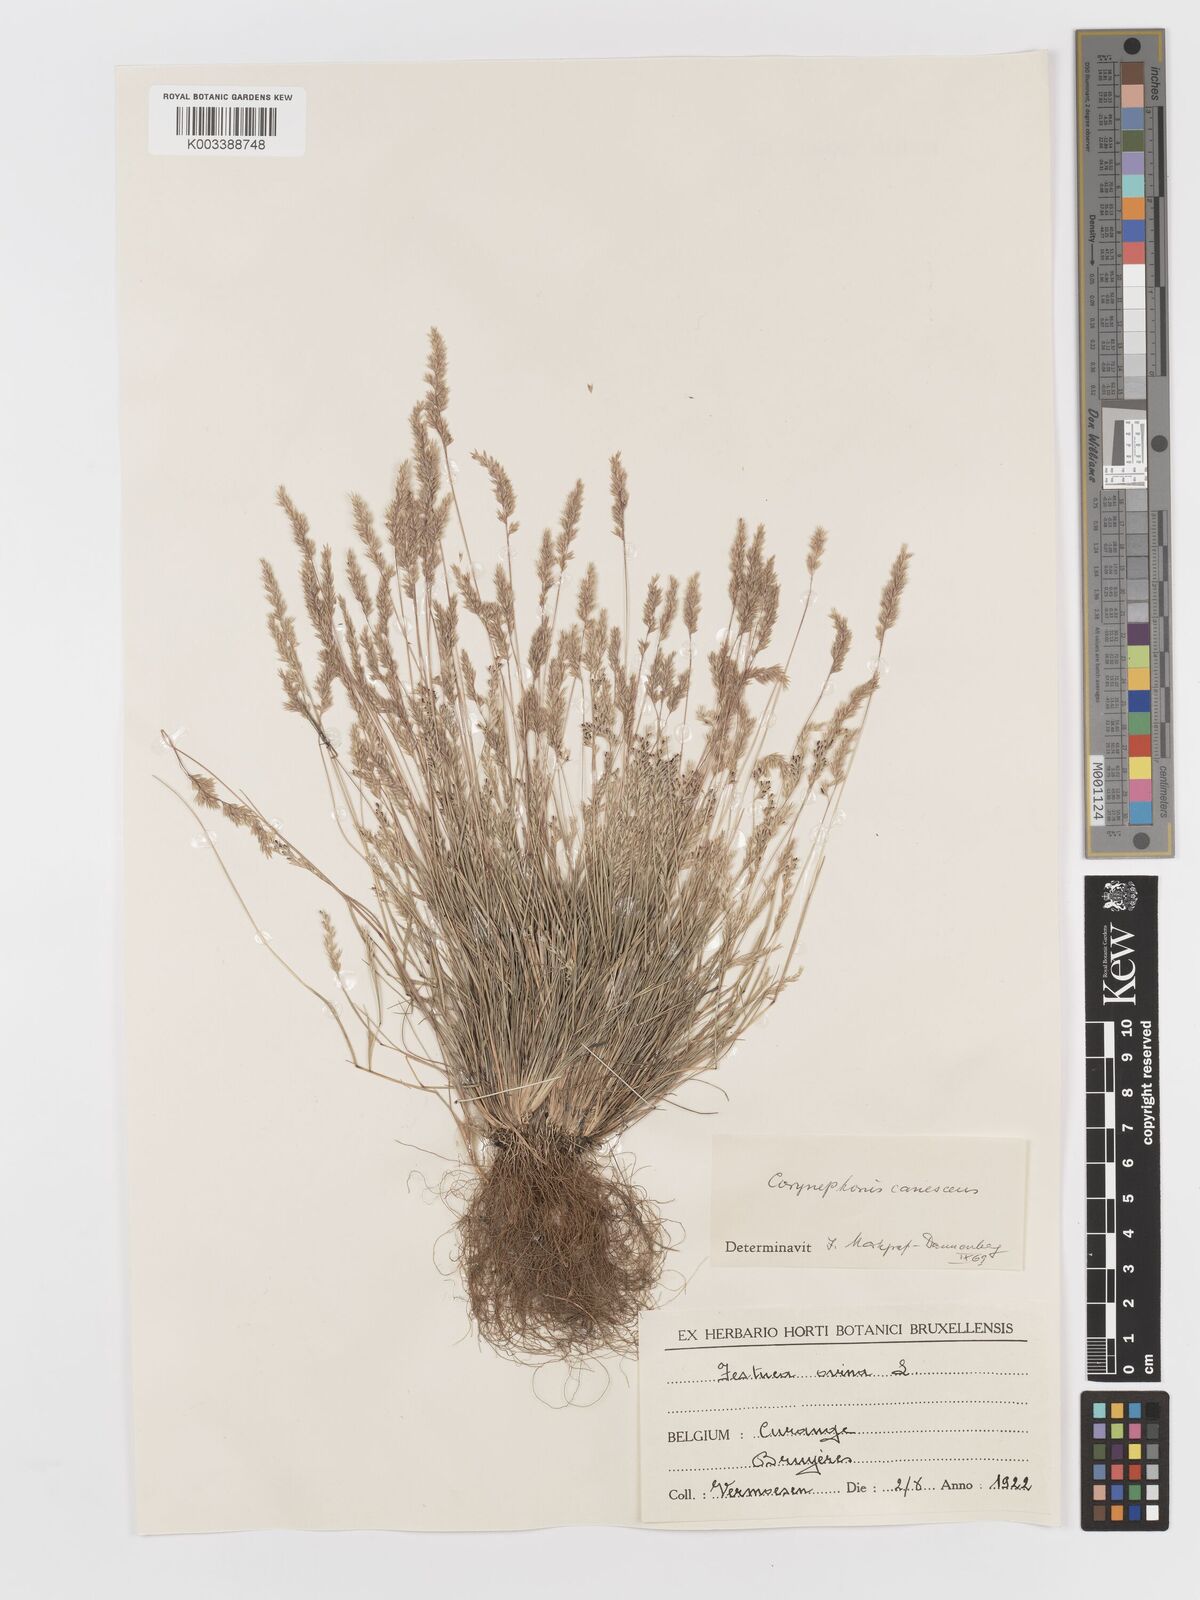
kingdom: Plantae
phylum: Tracheophyta
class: Liliopsida
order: Poales
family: Poaceae
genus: Corynephorus
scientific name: Corynephorus canescens
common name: Grey hair-grass
